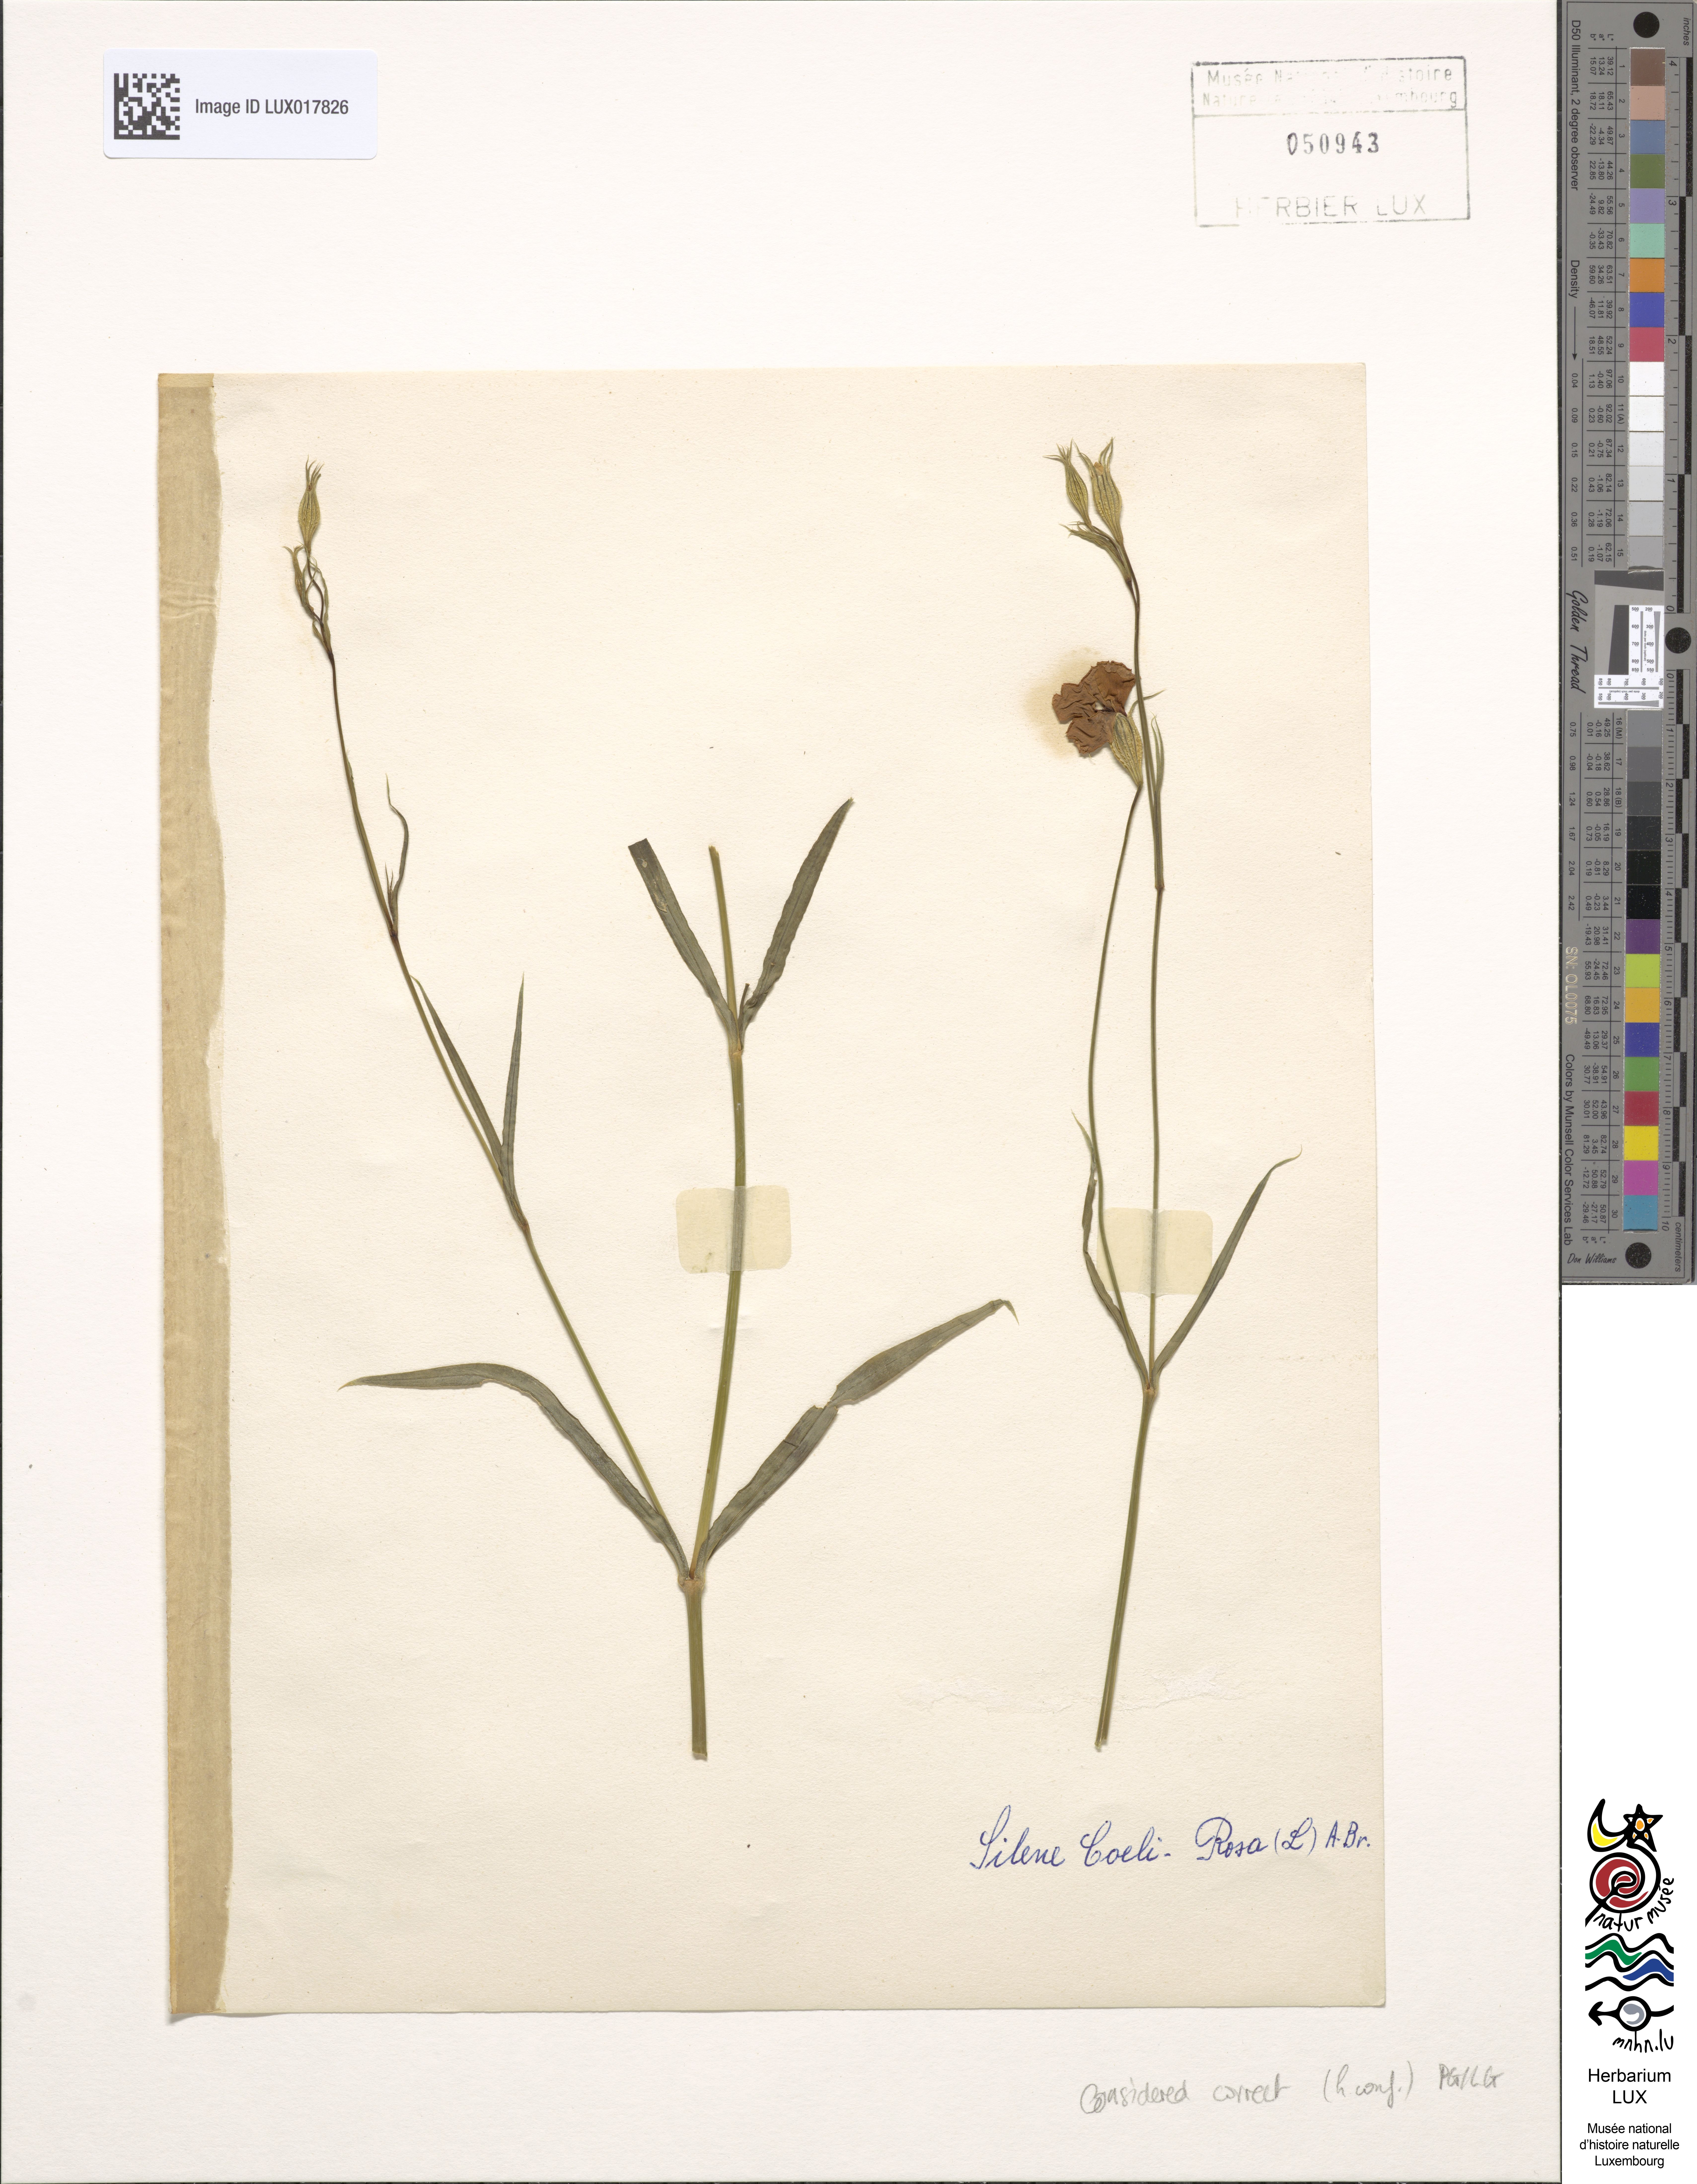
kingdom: Plantae
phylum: Tracheophyta
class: Magnoliopsida
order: Caryophyllales
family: Caryophyllaceae
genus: Eudianthe
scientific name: Eudianthe coeli-rosa
